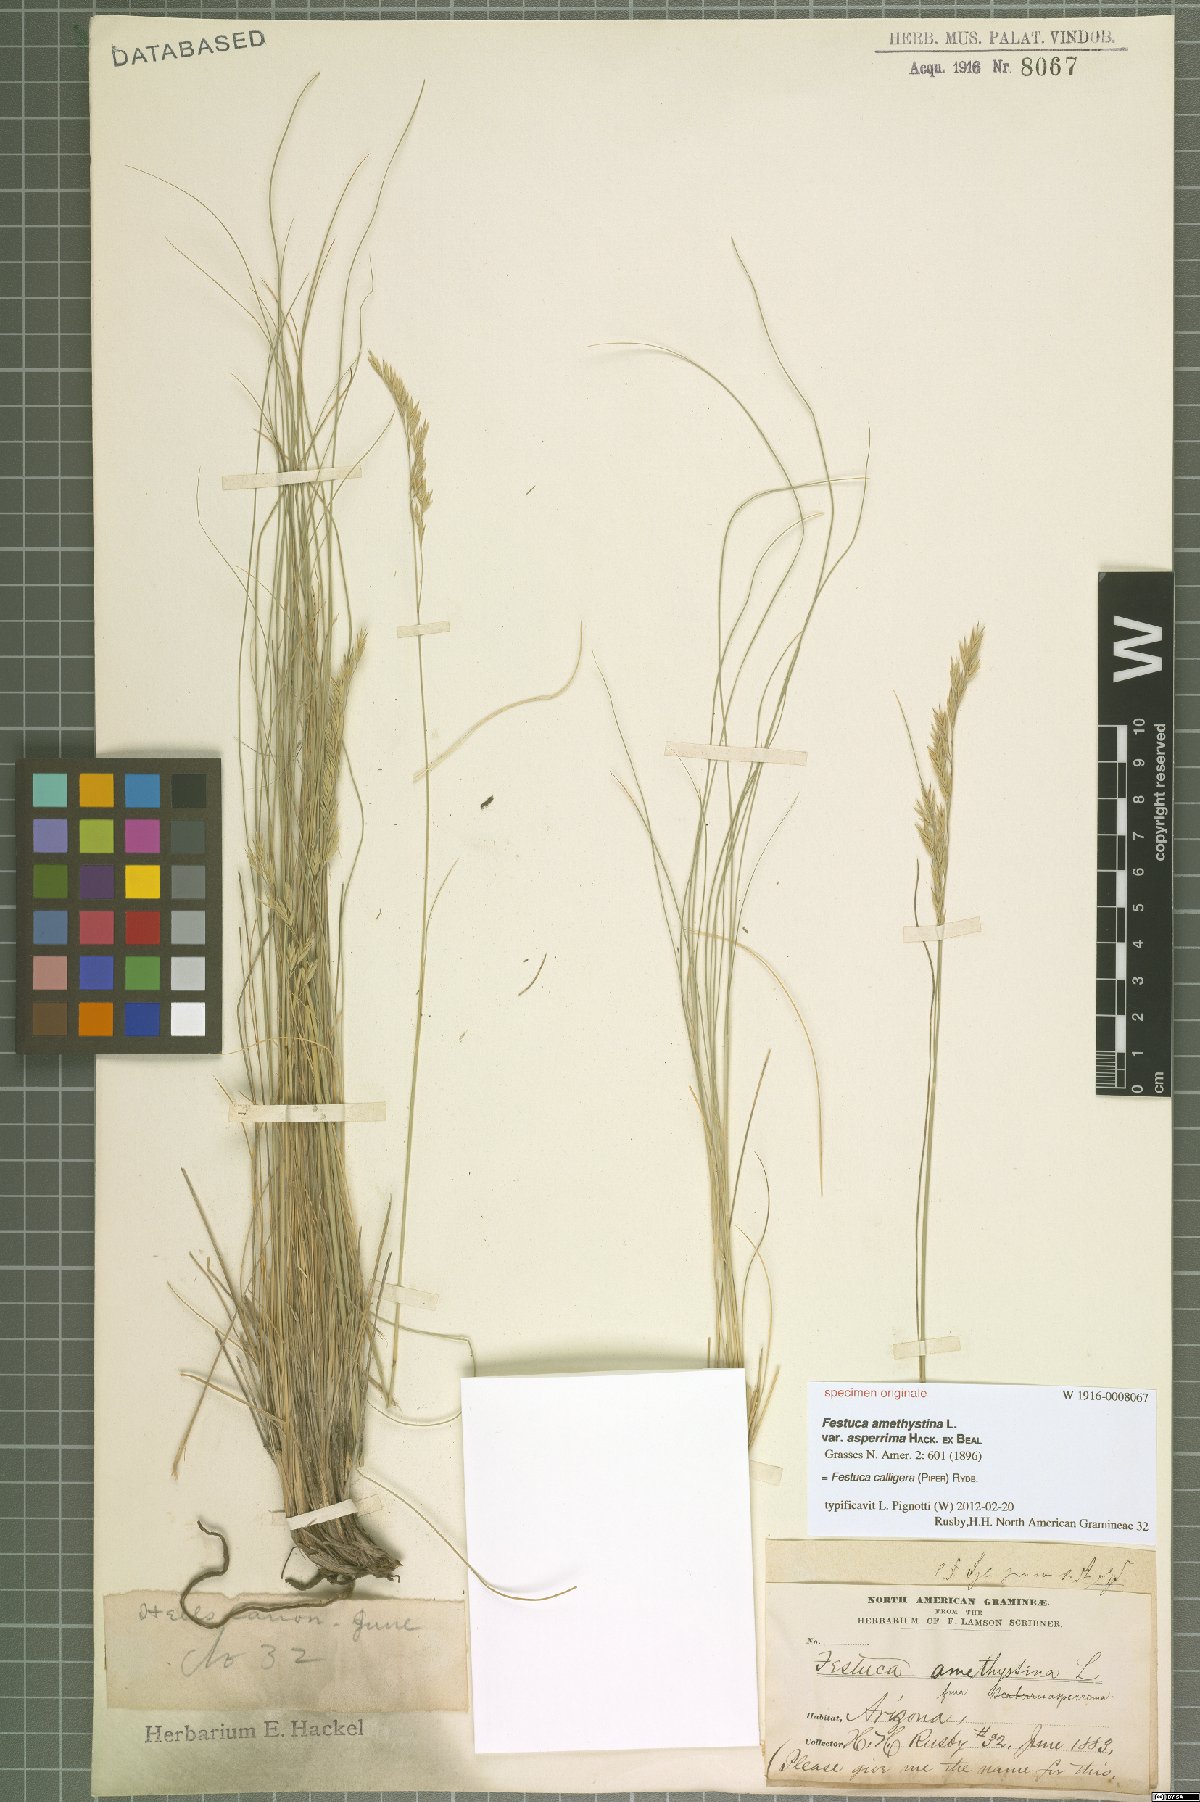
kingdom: Plantae
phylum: Tracheophyta
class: Liliopsida
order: Poales
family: Poaceae
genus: Festuca
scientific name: Festuca calligera
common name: Southwestern fescue
